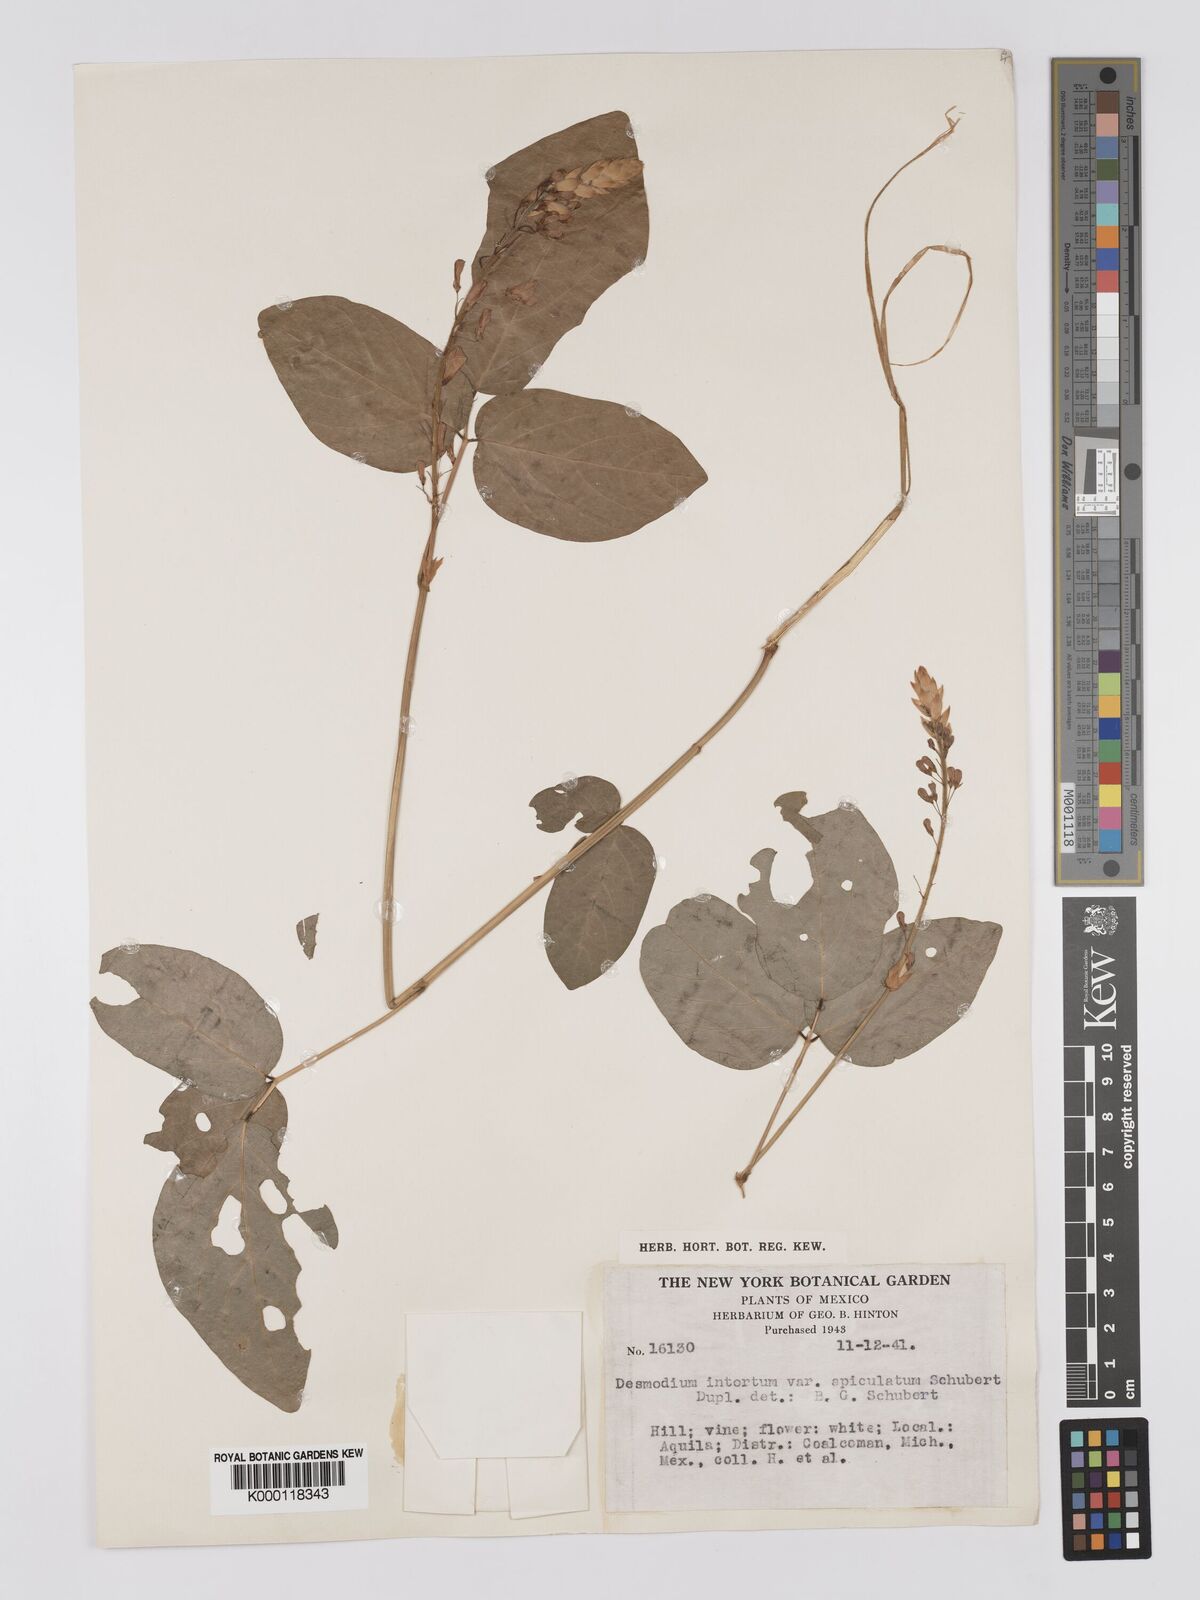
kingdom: Plantae
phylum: Tracheophyta
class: Magnoliopsida
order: Fabales
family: Fabaceae
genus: Desmodium
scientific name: Desmodium intortum
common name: Greenleaf ticktrefoil
